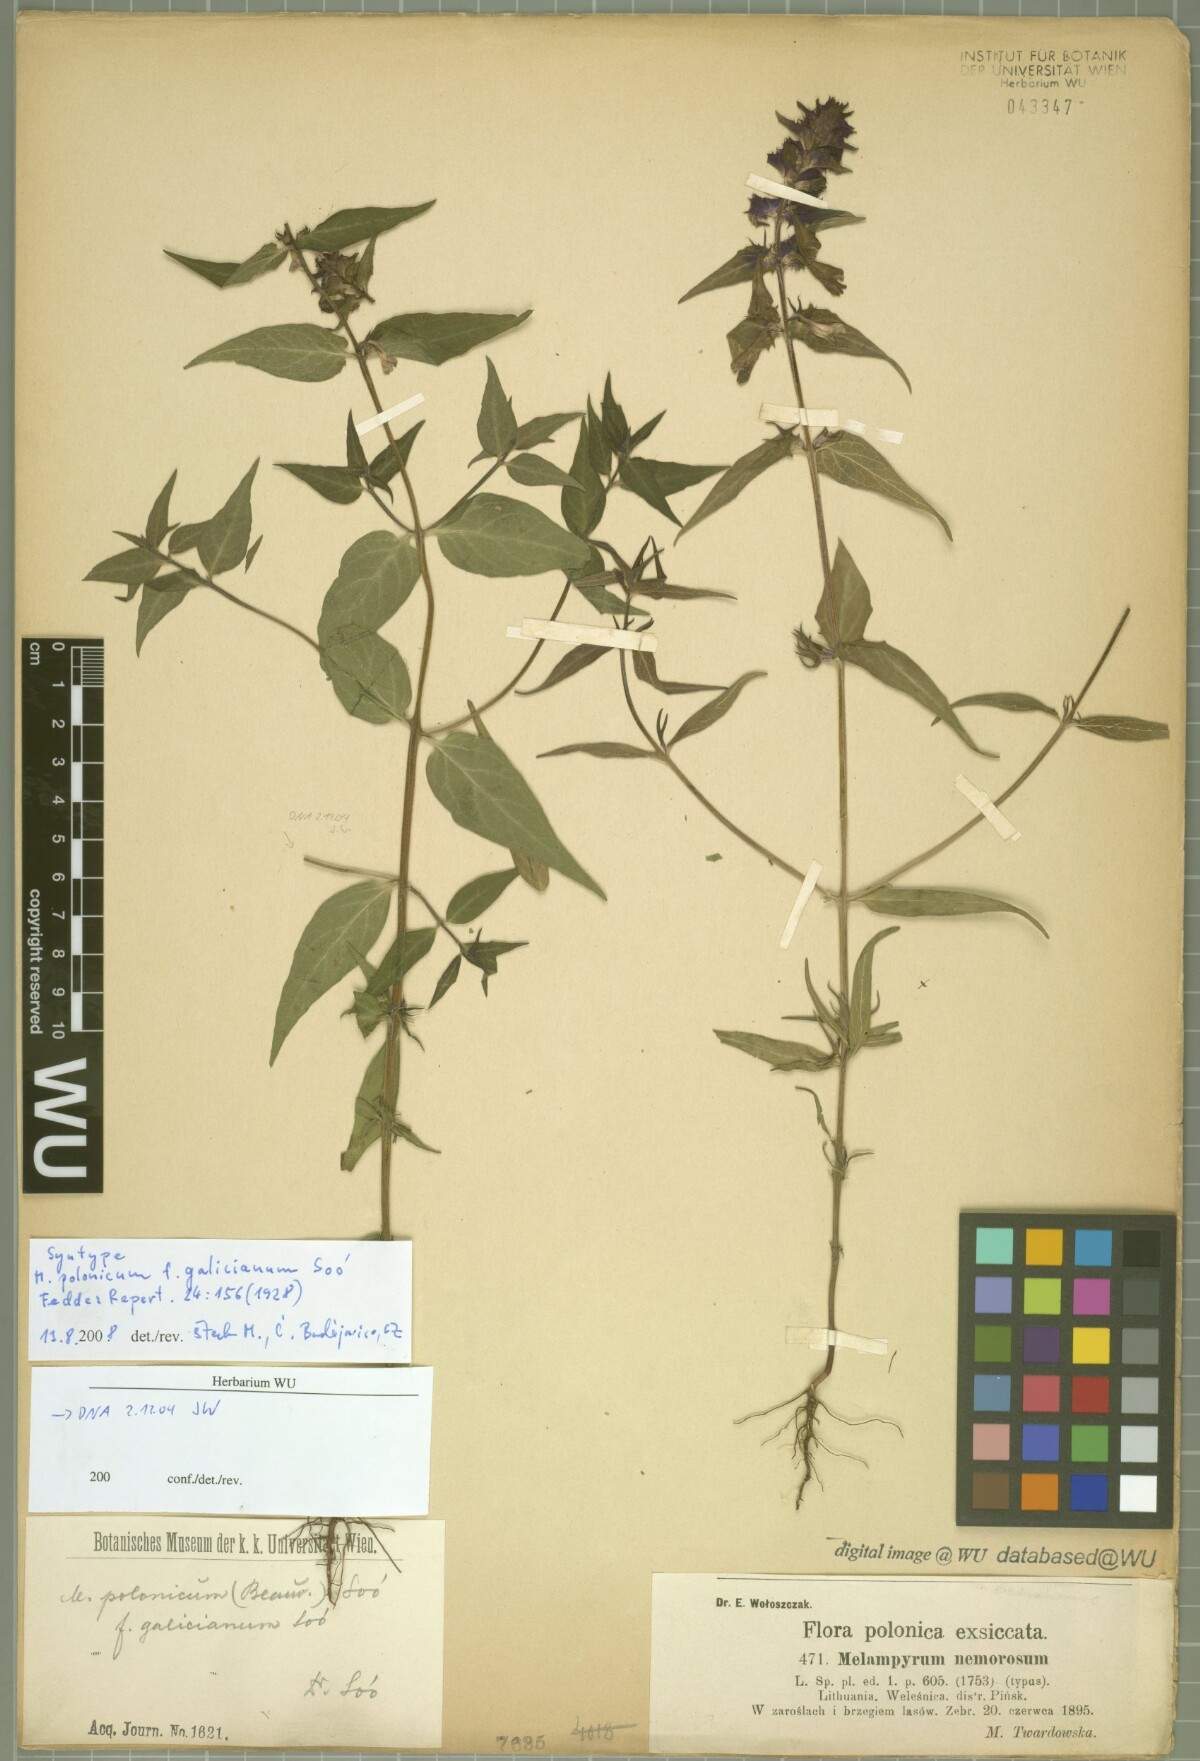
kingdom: Plantae
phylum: Tracheophyta
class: Magnoliopsida
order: Lamiales
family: Orobanchaceae
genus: Melampyrum
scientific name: Melampyrum polonicum
